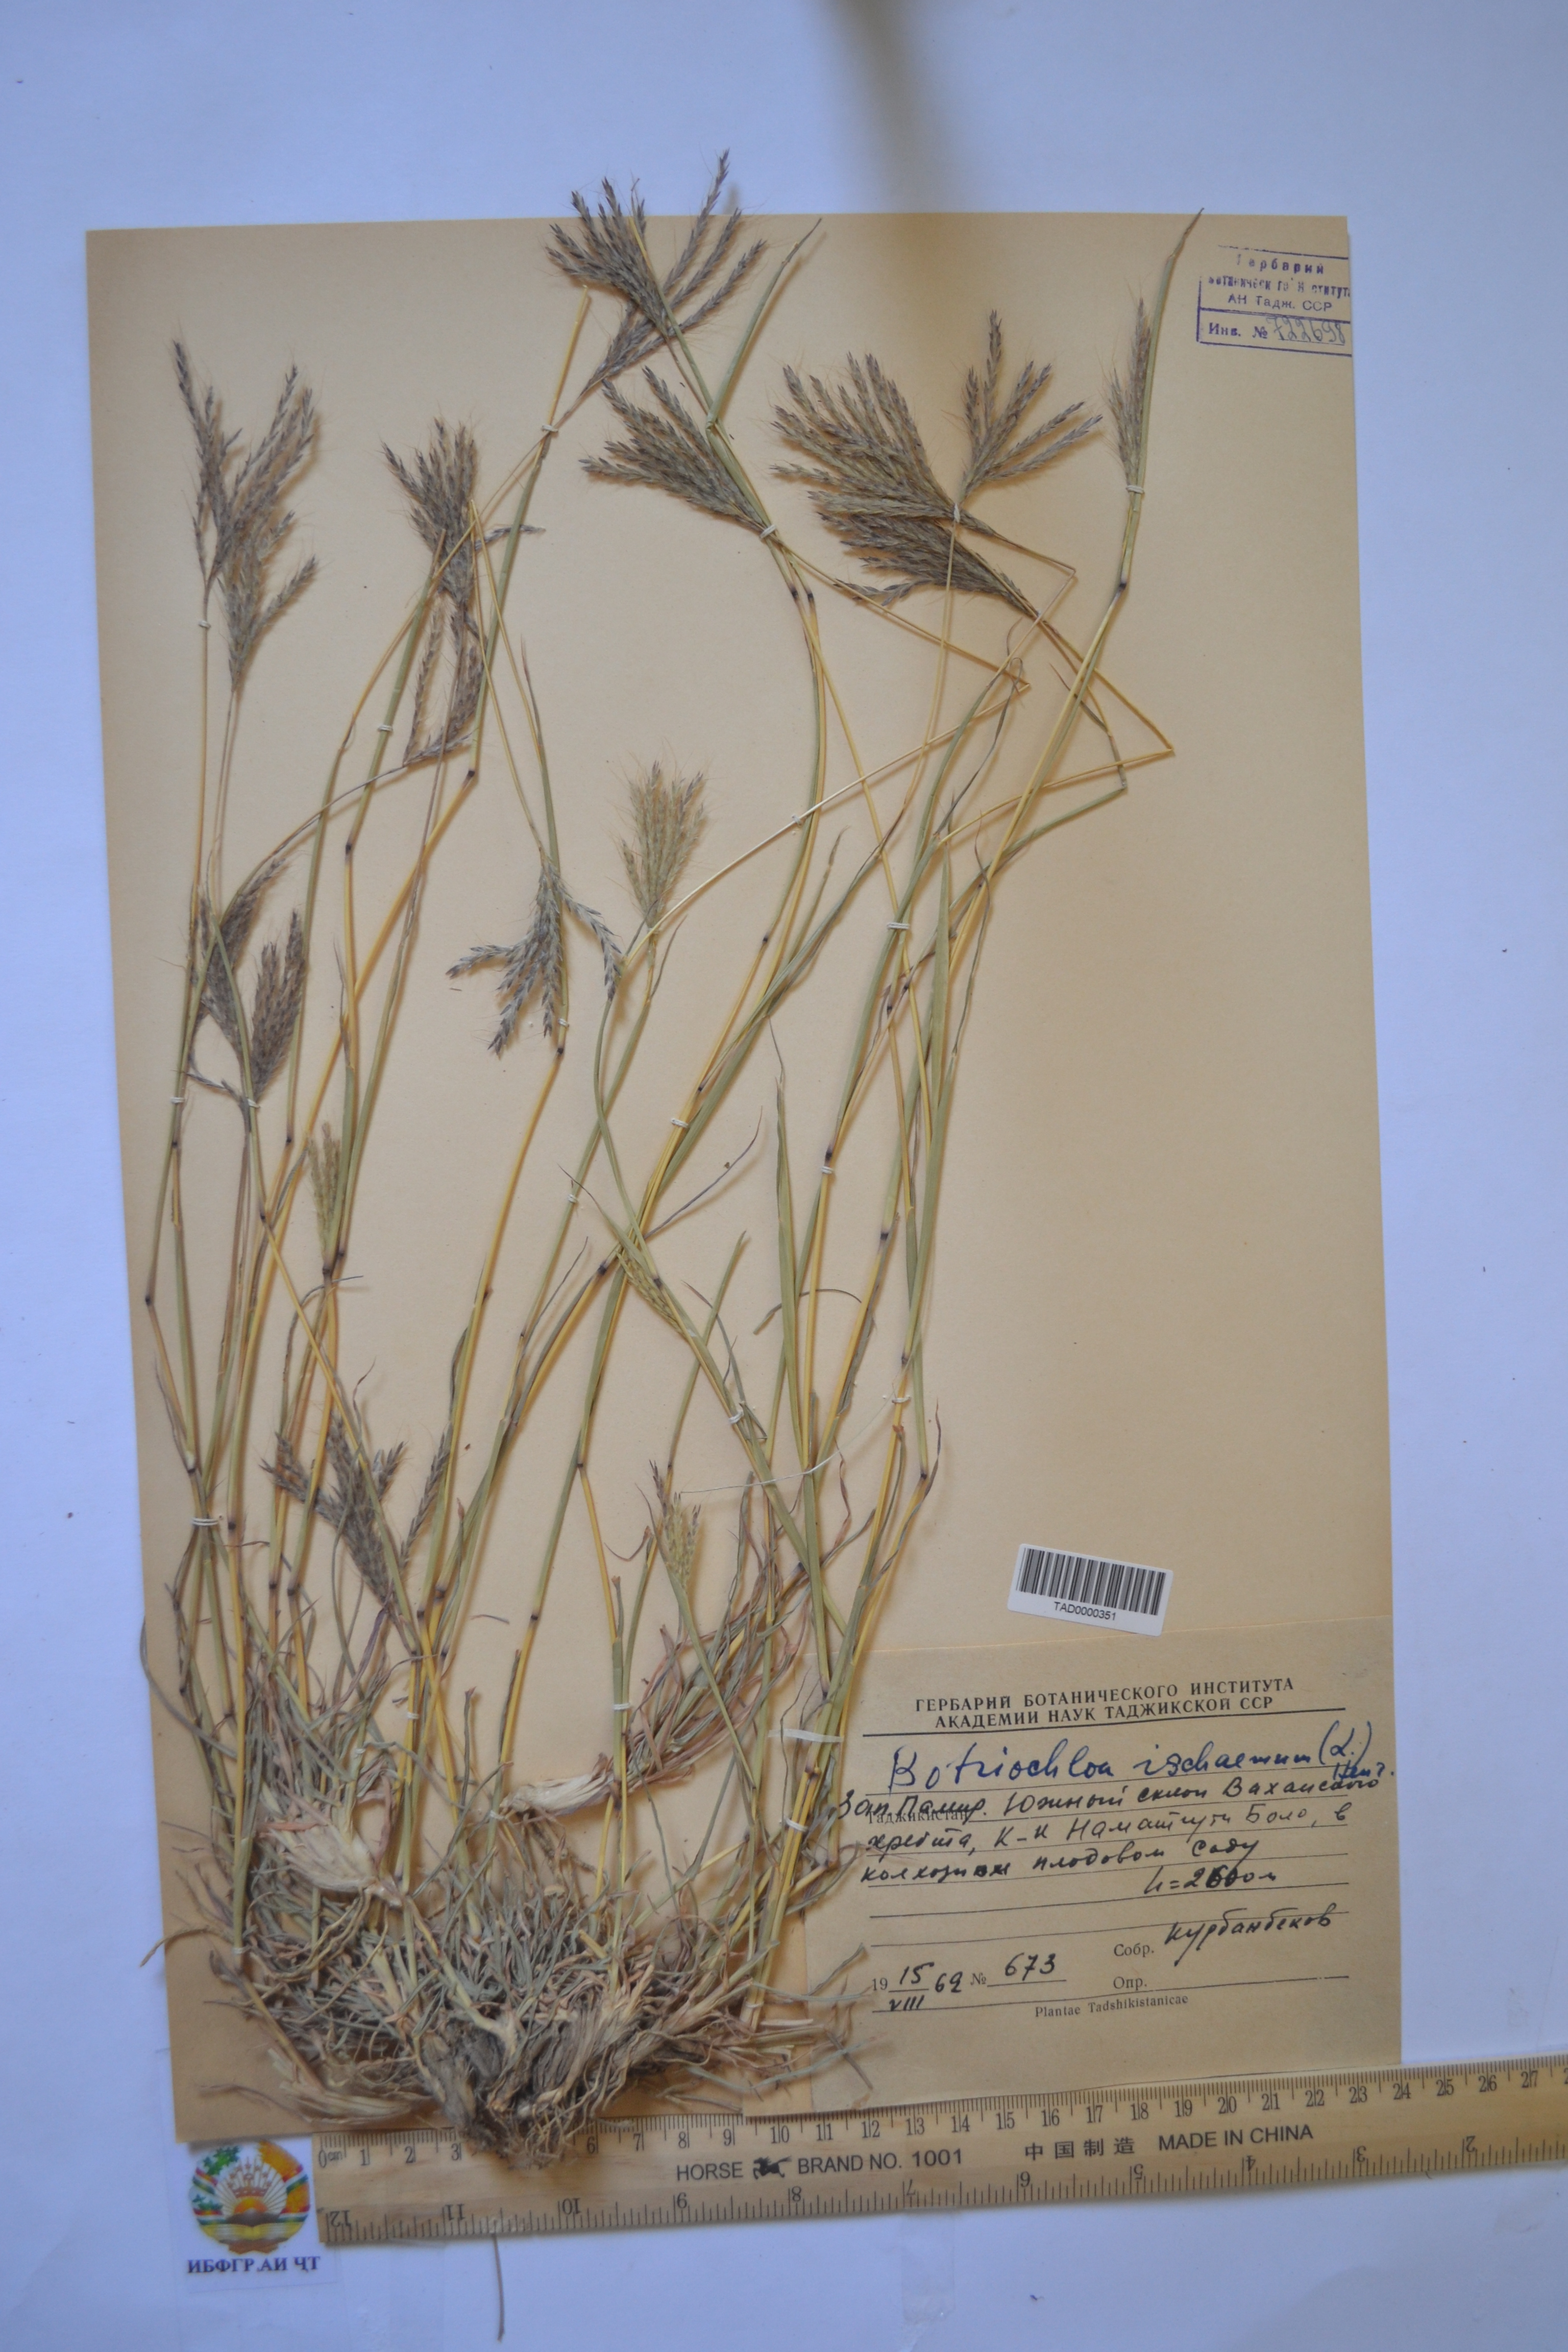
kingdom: Plantae
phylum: Tracheophyta
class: Liliopsida
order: Poales
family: Poaceae
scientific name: Poaceae
